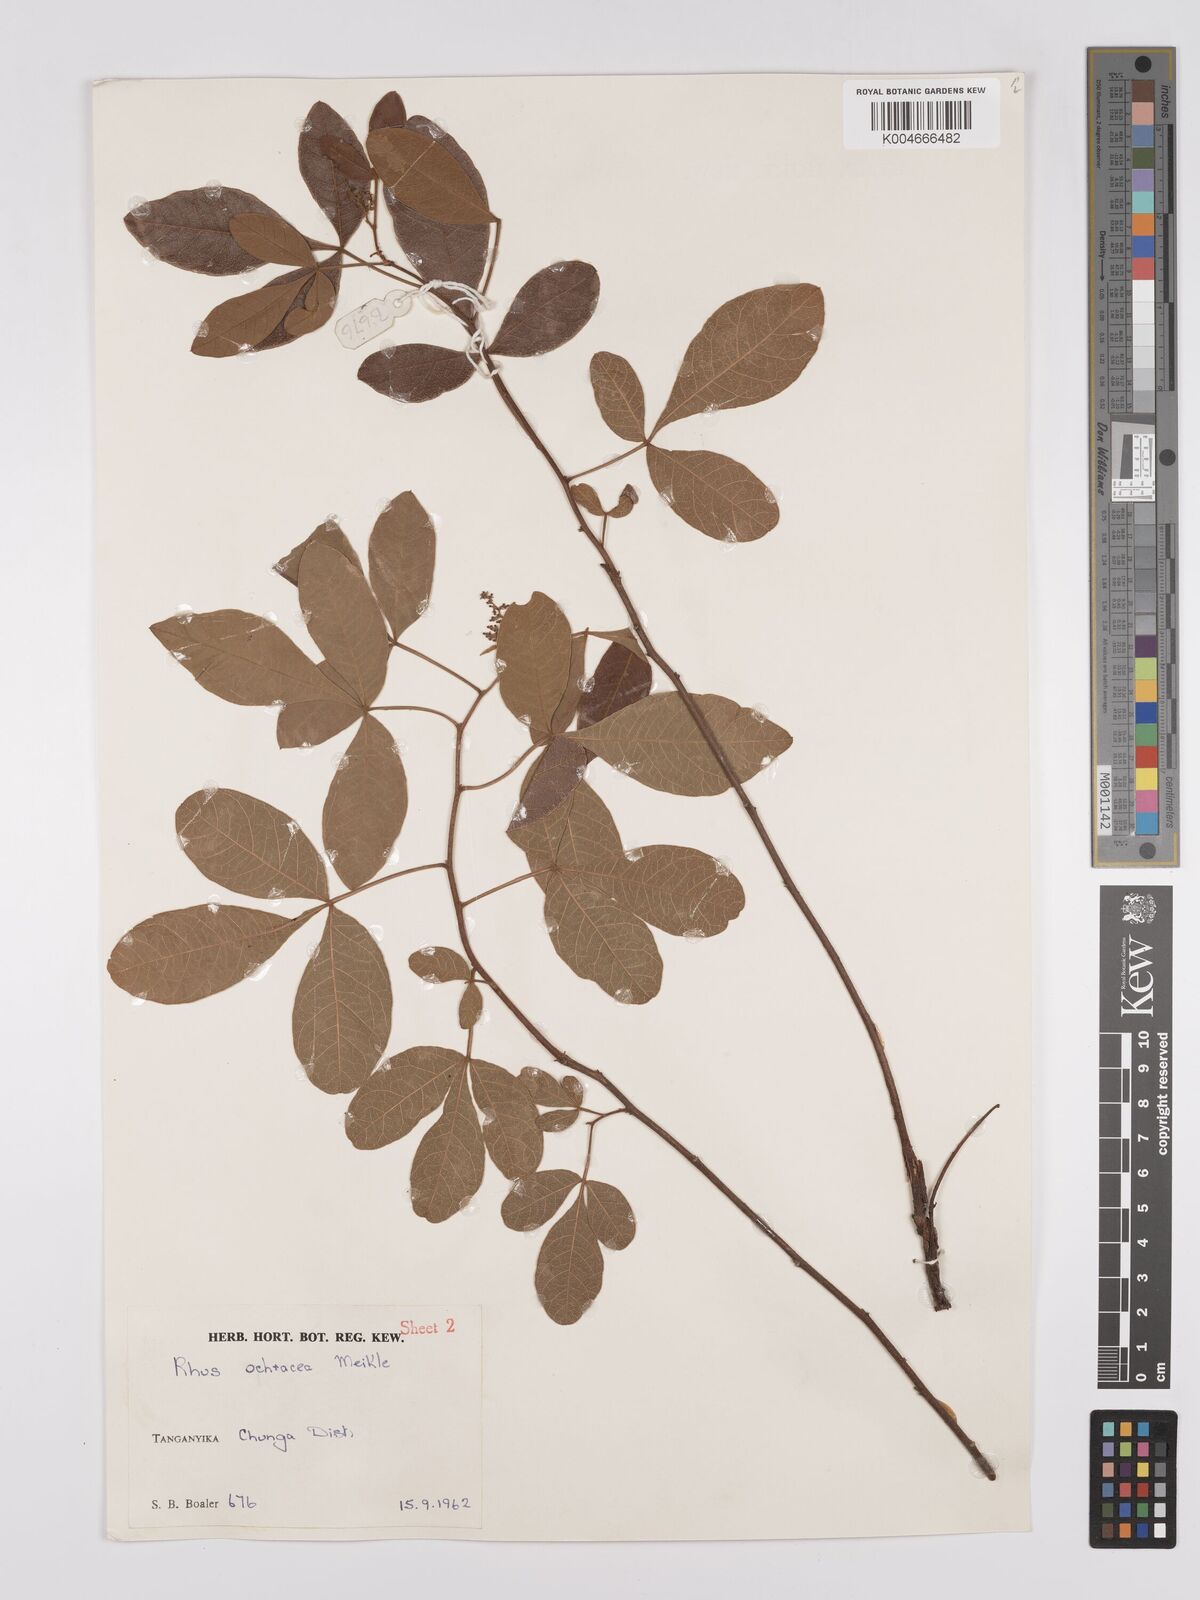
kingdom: Plantae
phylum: Tracheophyta
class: Magnoliopsida
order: Sapindales
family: Anacardiaceae
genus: Searsia
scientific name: Searsia ochracea
